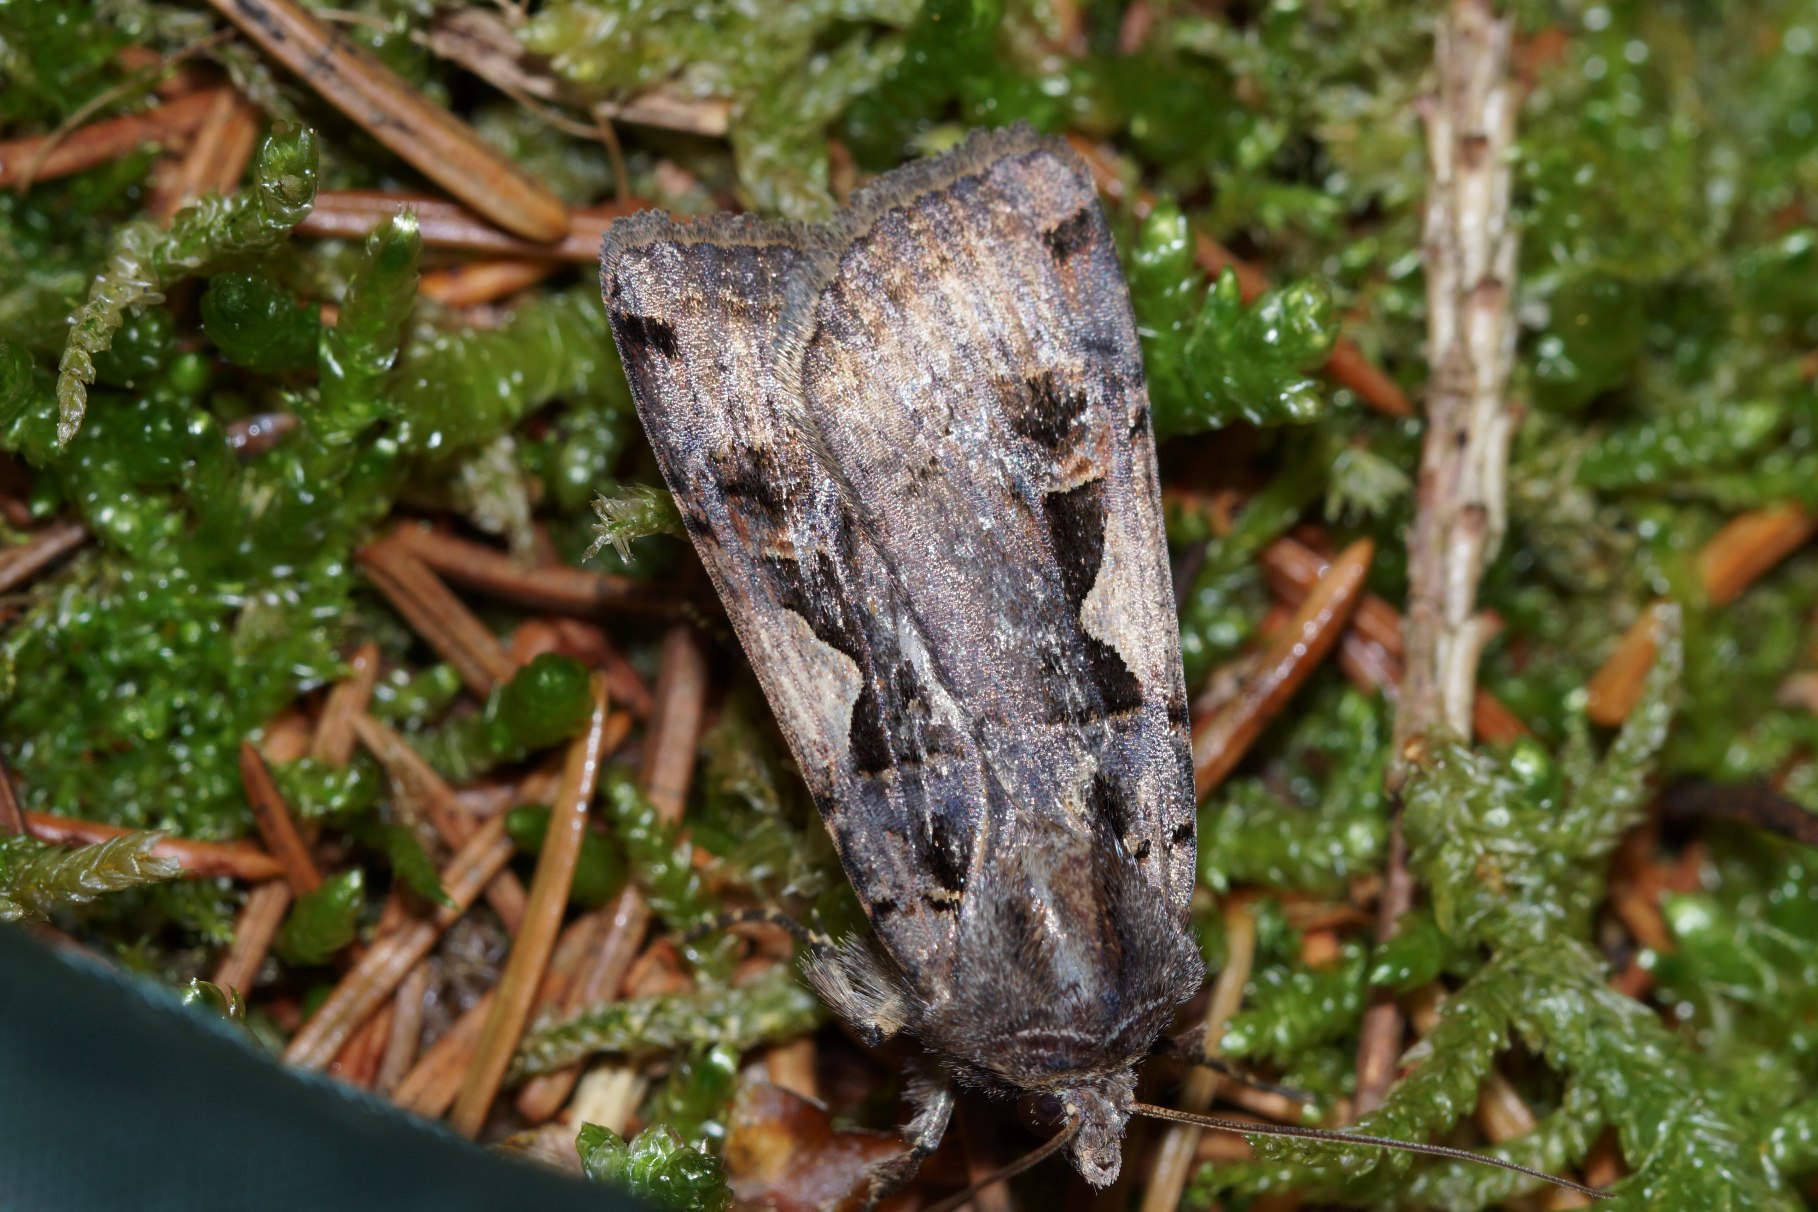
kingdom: Animalia
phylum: Arthropoda
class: Insecta
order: Lepidoptera
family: Noctuidae
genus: Xestia
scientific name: Xestia c-nigrum
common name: Det sorte c
